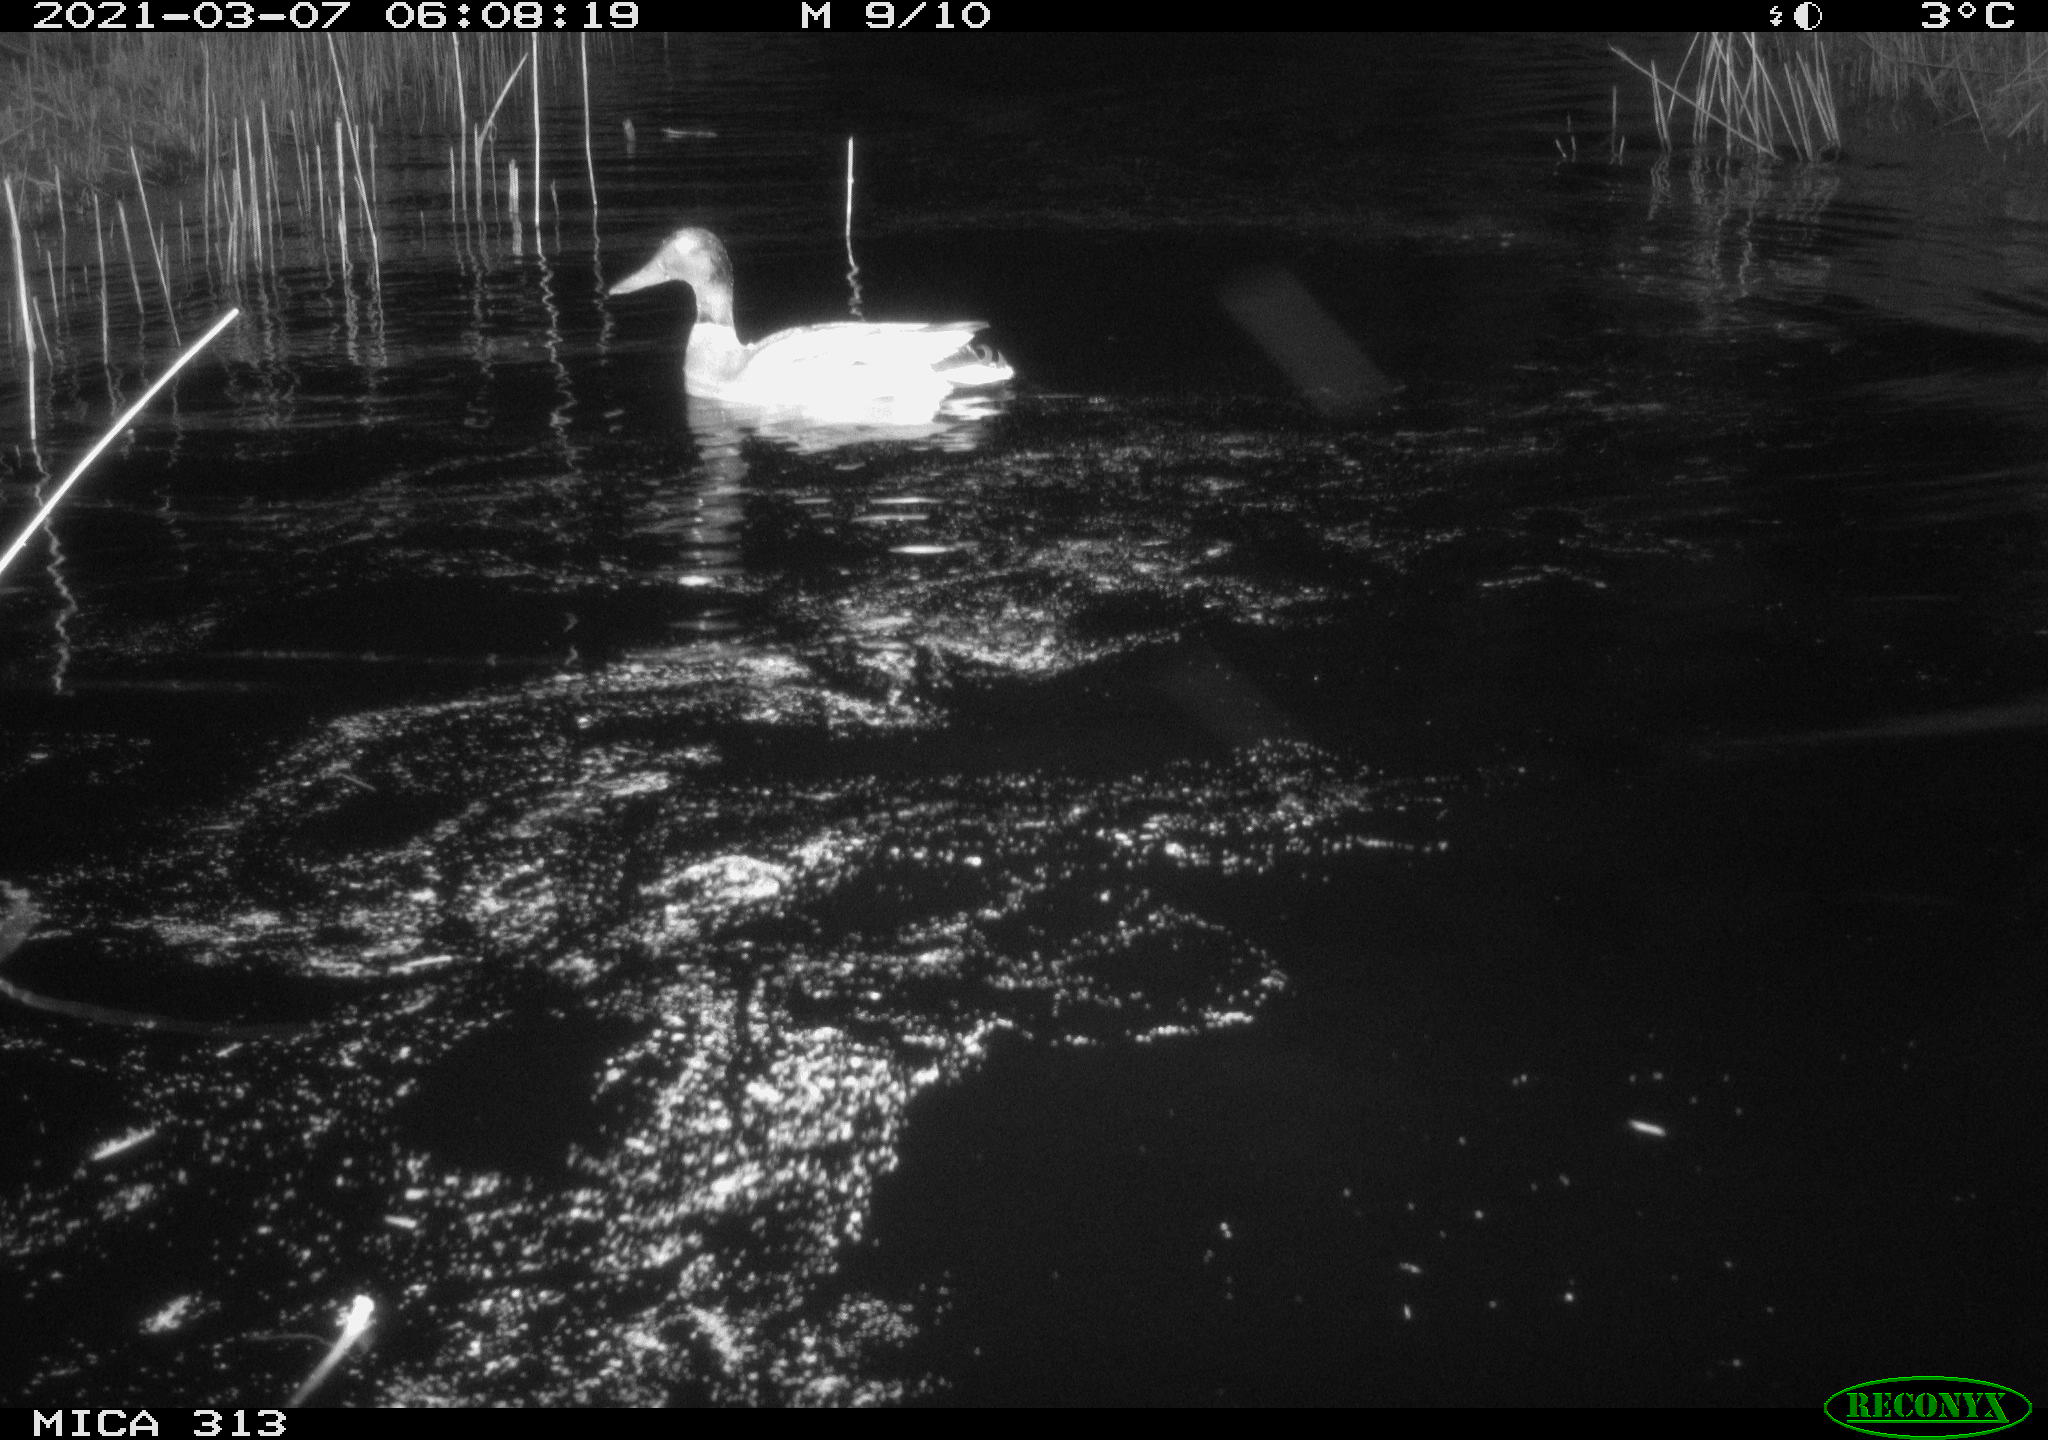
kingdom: Animalia
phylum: Chordata
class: Aves
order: Anseriformes
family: Anatidae
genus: Anas
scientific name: Anas platyrhynchos
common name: Mallard
